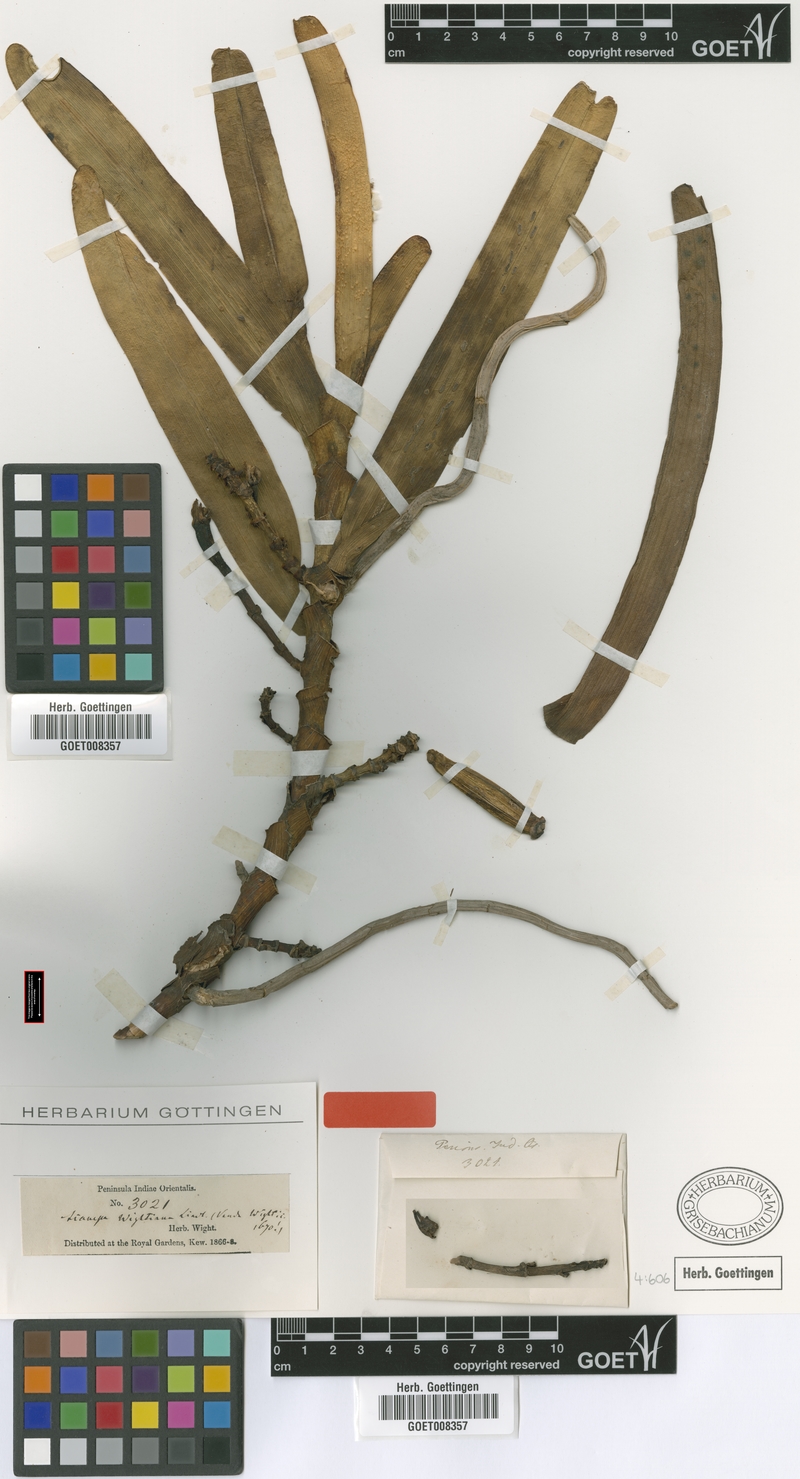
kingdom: Plantae
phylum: Tracheophyta
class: Liliopsida
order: Asparagales
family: Orchidaceae
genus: Acampe
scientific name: Acampe praemorsa
